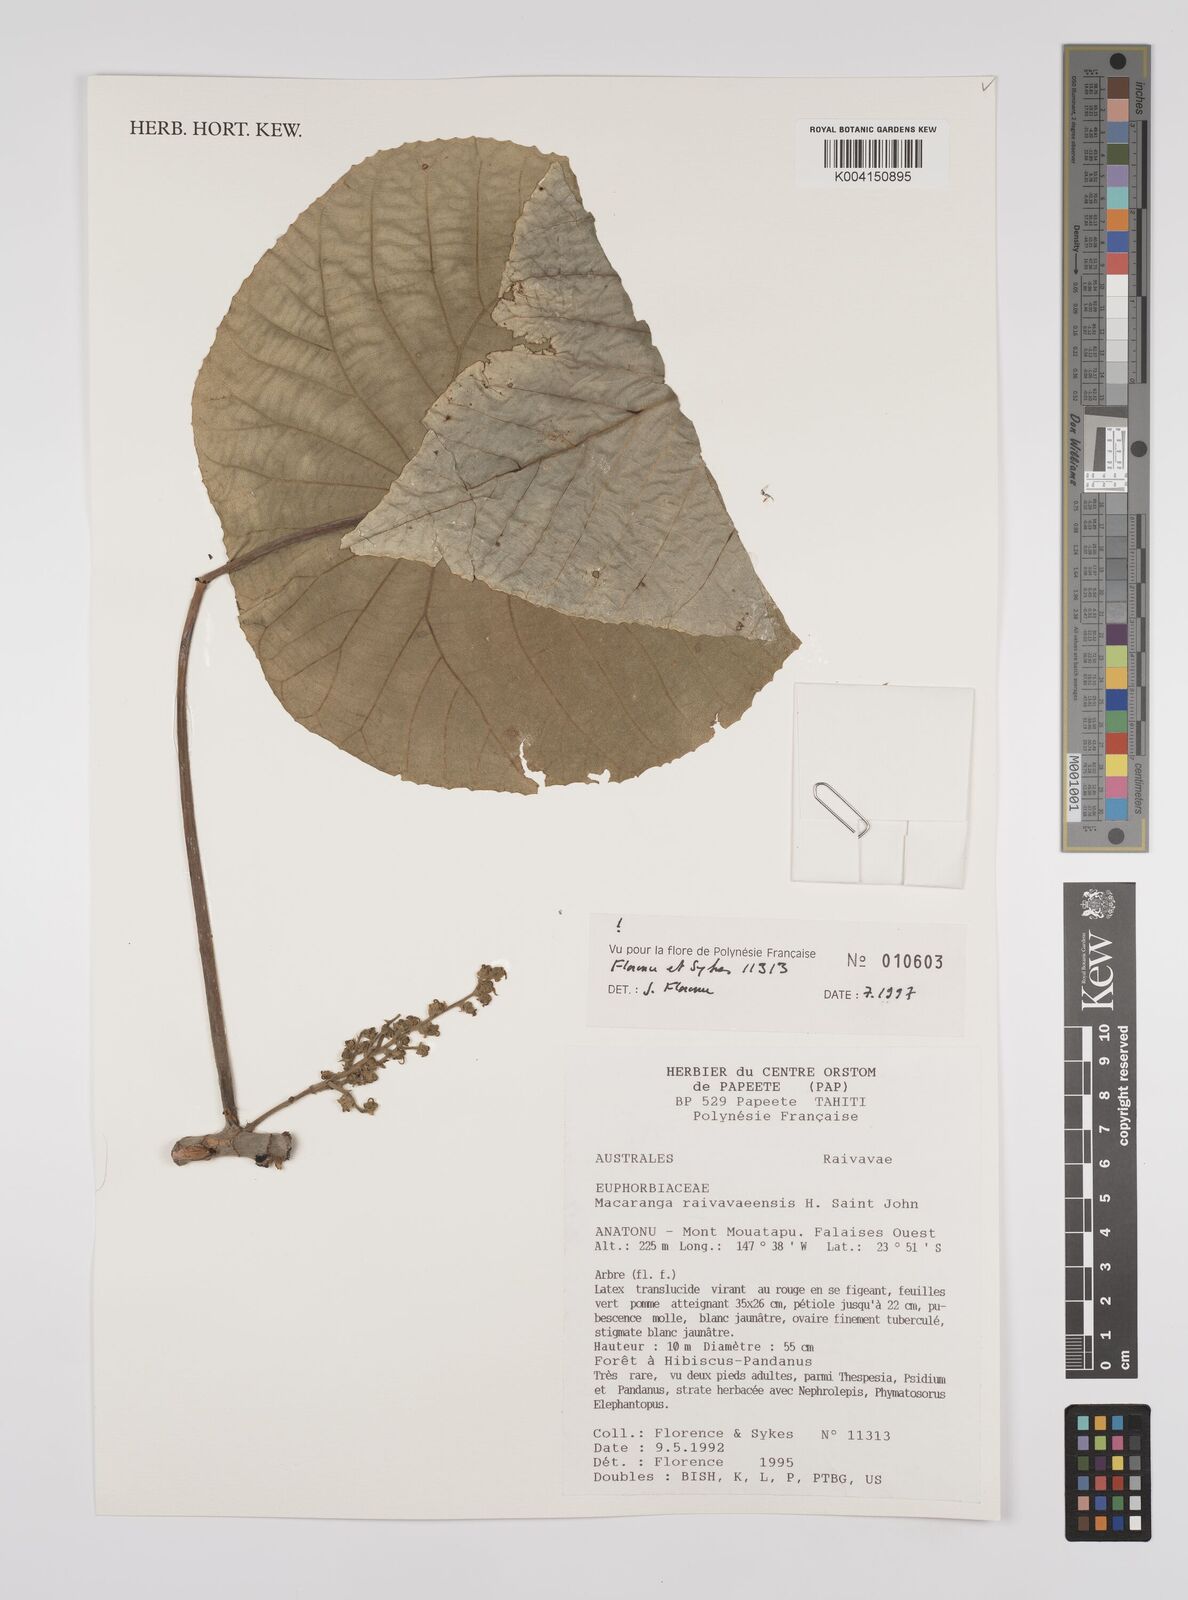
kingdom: Plantae
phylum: Tracheophyta
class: Magnoliopsida
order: Malpighiales
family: Euphorbiaceae
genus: Macaranga
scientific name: Macaranga raivavaeensis
